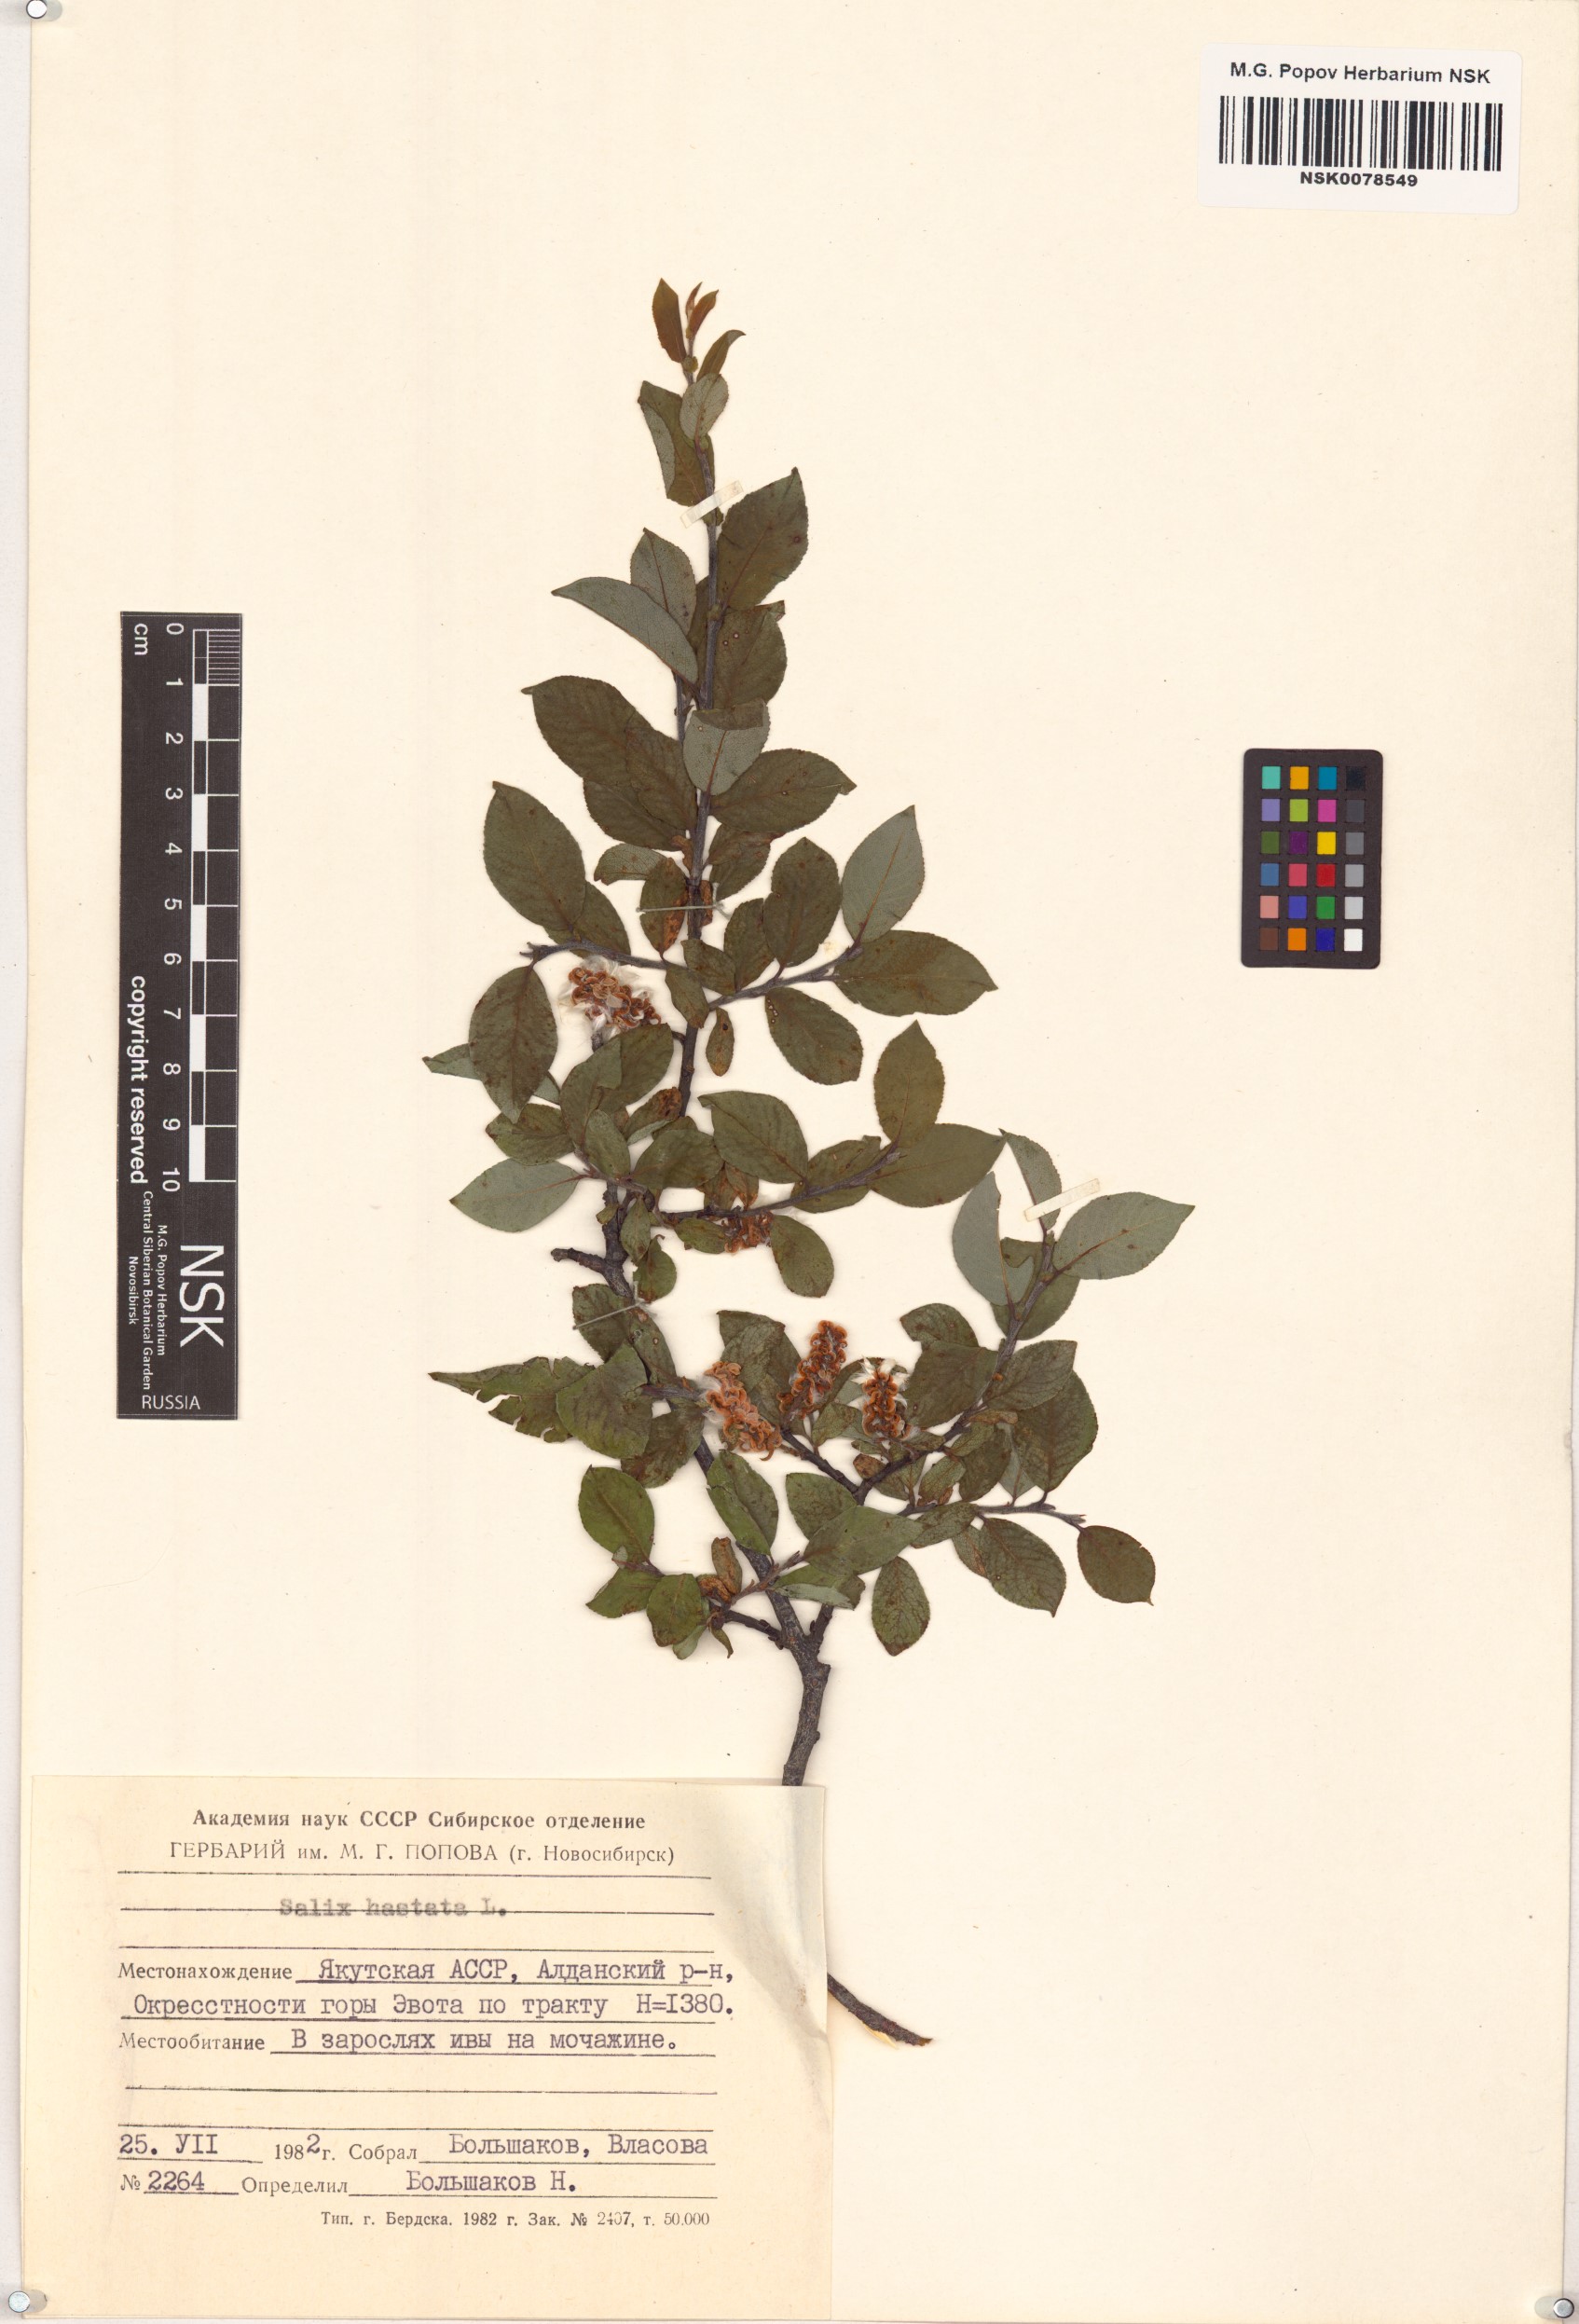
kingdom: Plantae
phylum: Tracheophyta
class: Magnoliopsida
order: Malpighiales
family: Salicaceae
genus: Salix
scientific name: Salix hastata
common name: Halberd willow
